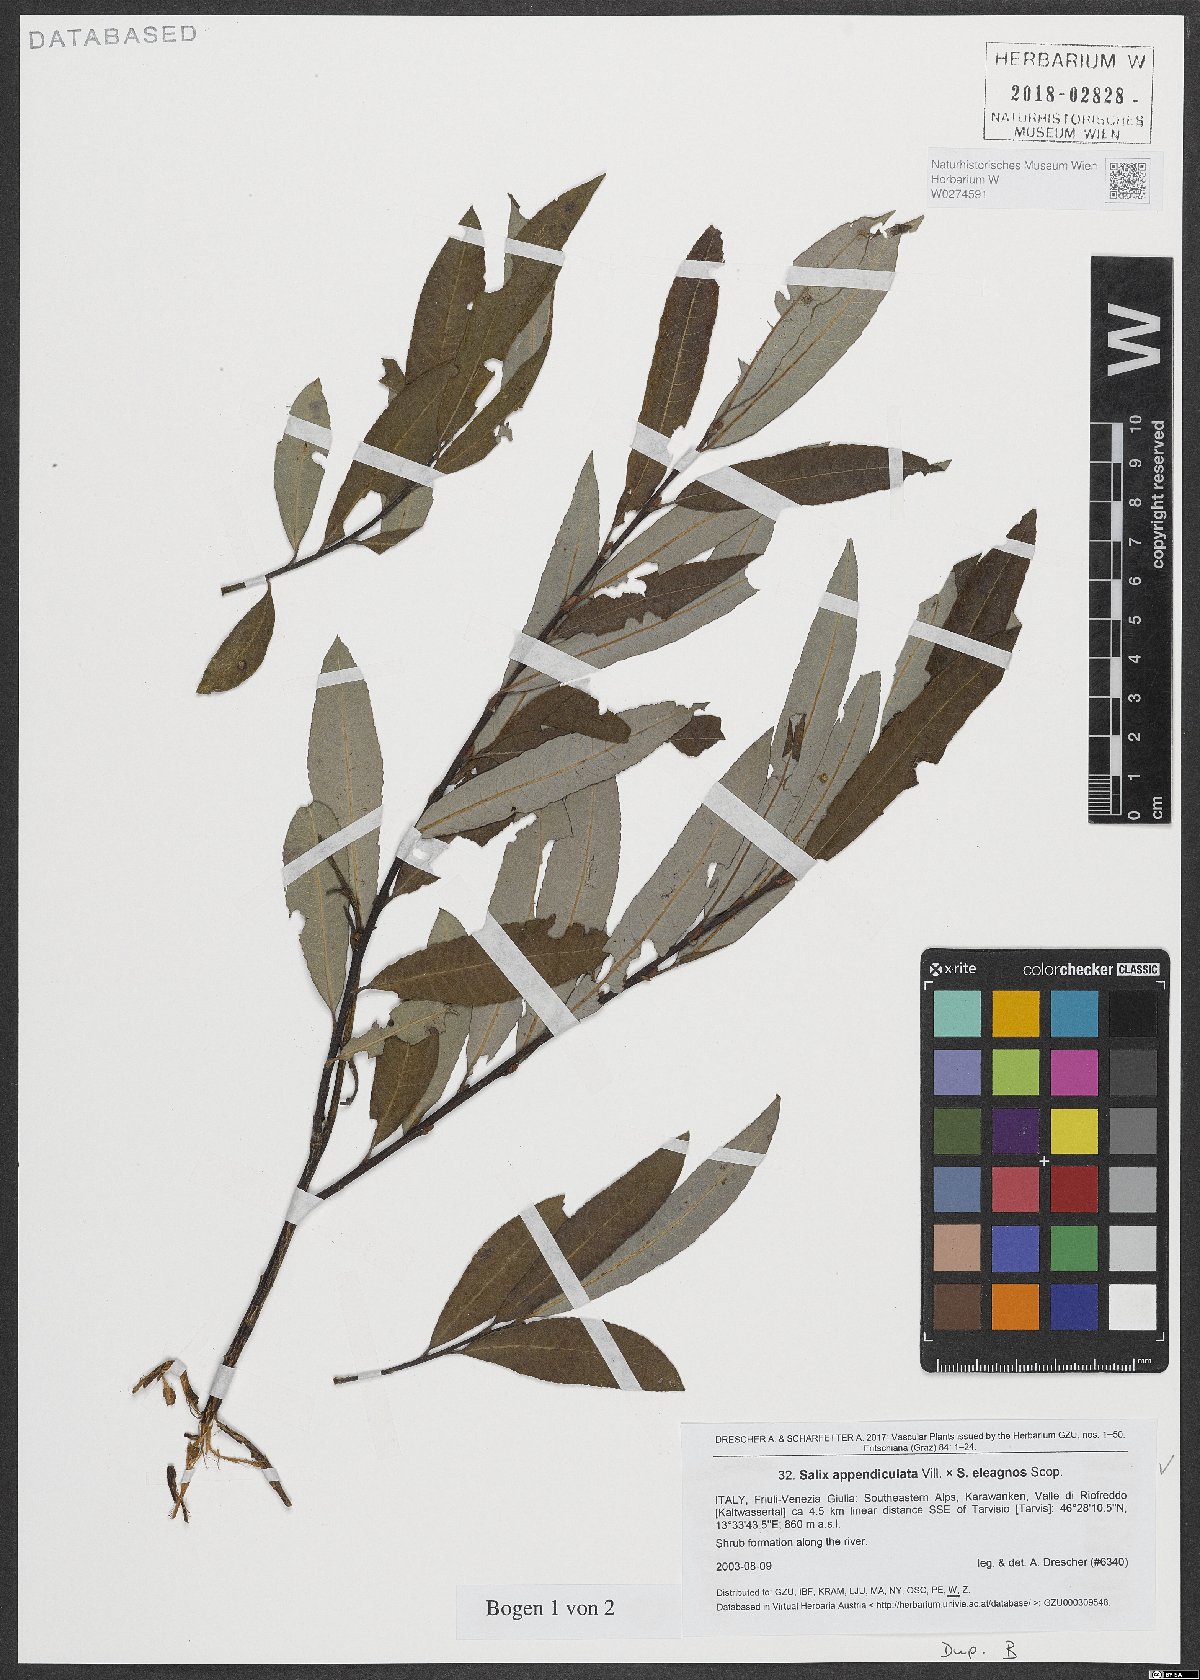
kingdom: Plantae
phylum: Tracheophyta
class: Magnoliopsida
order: Malpighiales
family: Salicaceae
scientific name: Salicaceae
